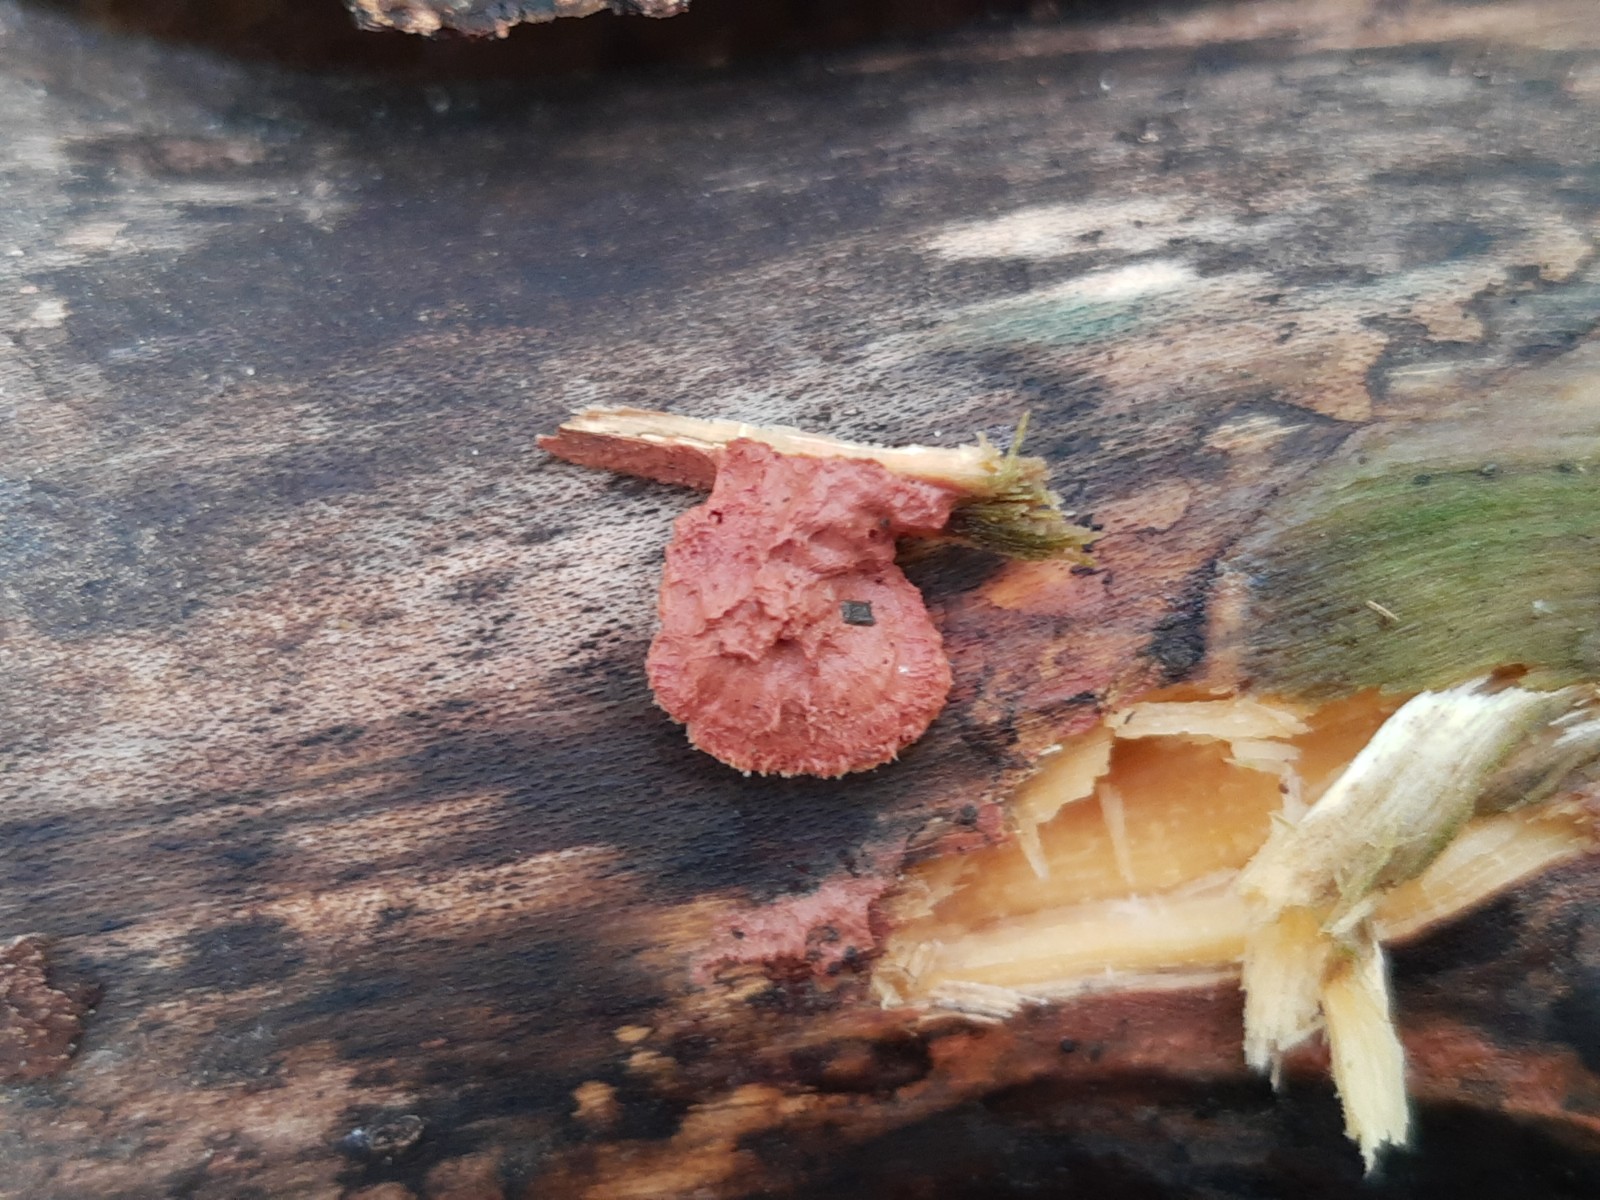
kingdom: Fungi
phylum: Basidiomycota
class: Agaricomycetes
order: Polyporales
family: Phanerochaetaceae
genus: Hapalopilus
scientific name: Hapalopilus rutilans
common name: rødlig okkerporesvamp
